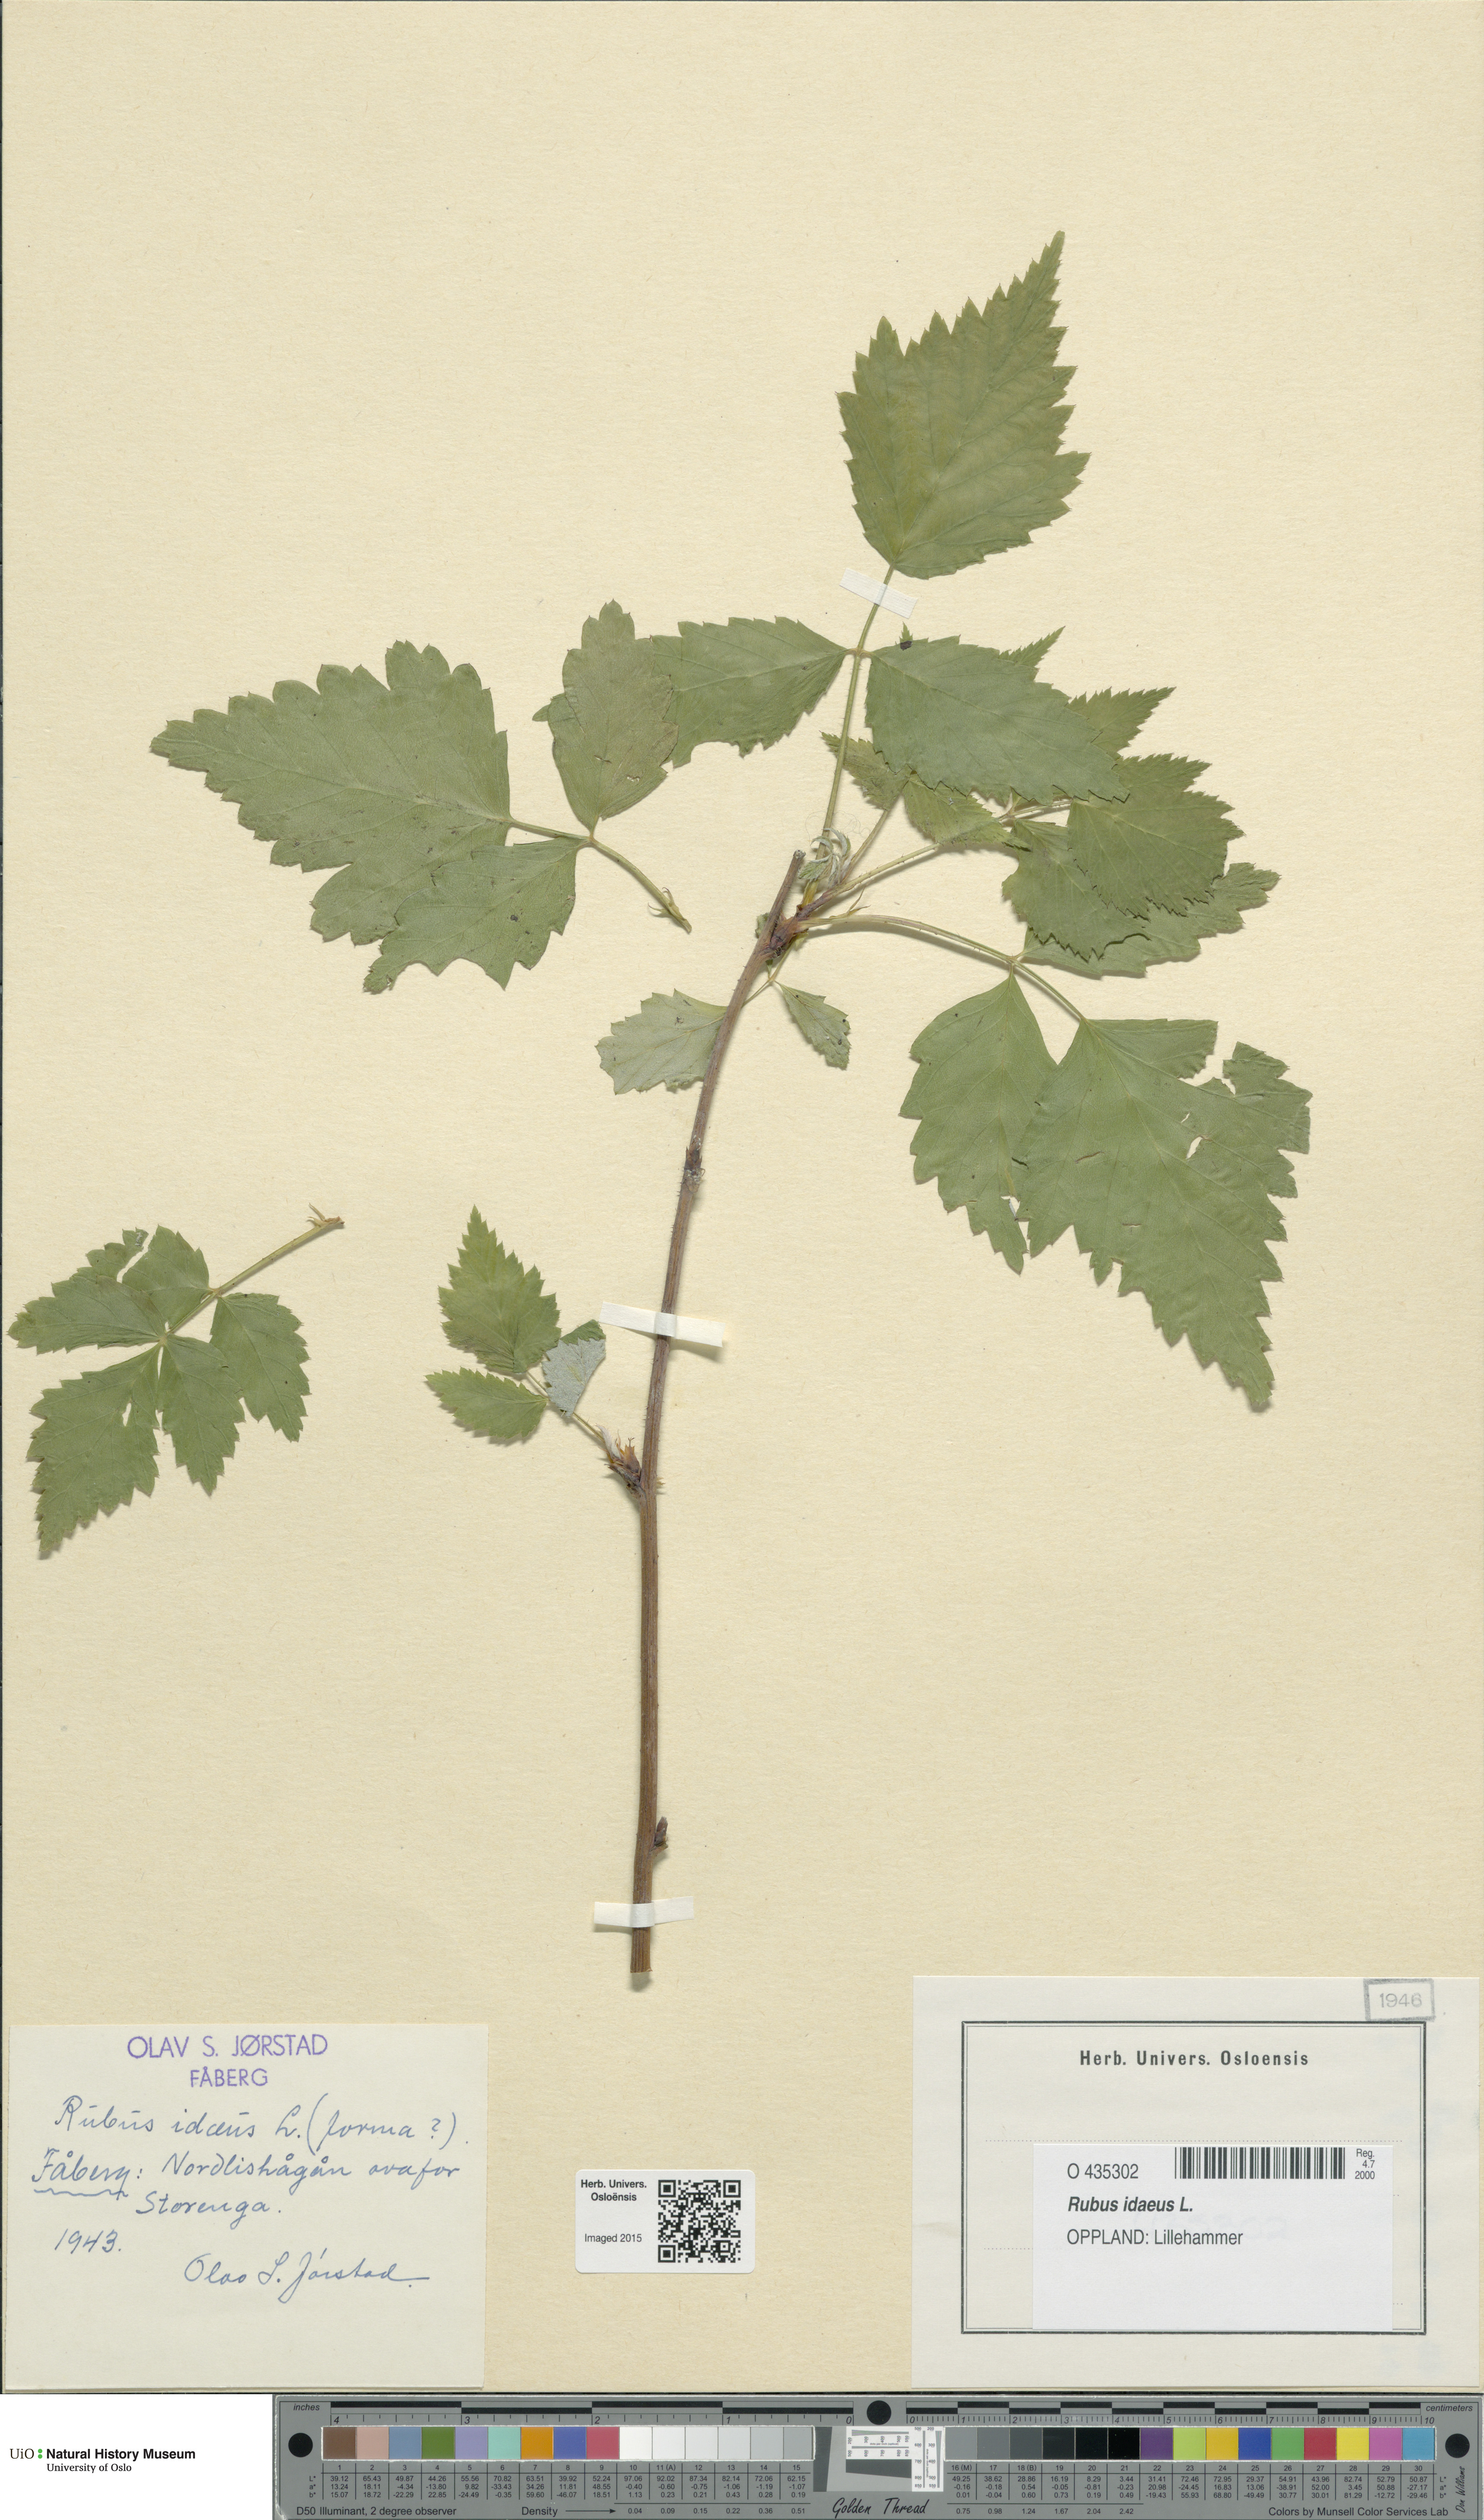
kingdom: Plantae
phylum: Tracheophyta
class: Magnoliopsida
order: Rosales
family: Rosaceae
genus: Rubus
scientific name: Rubus idaeus
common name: Raspberry
